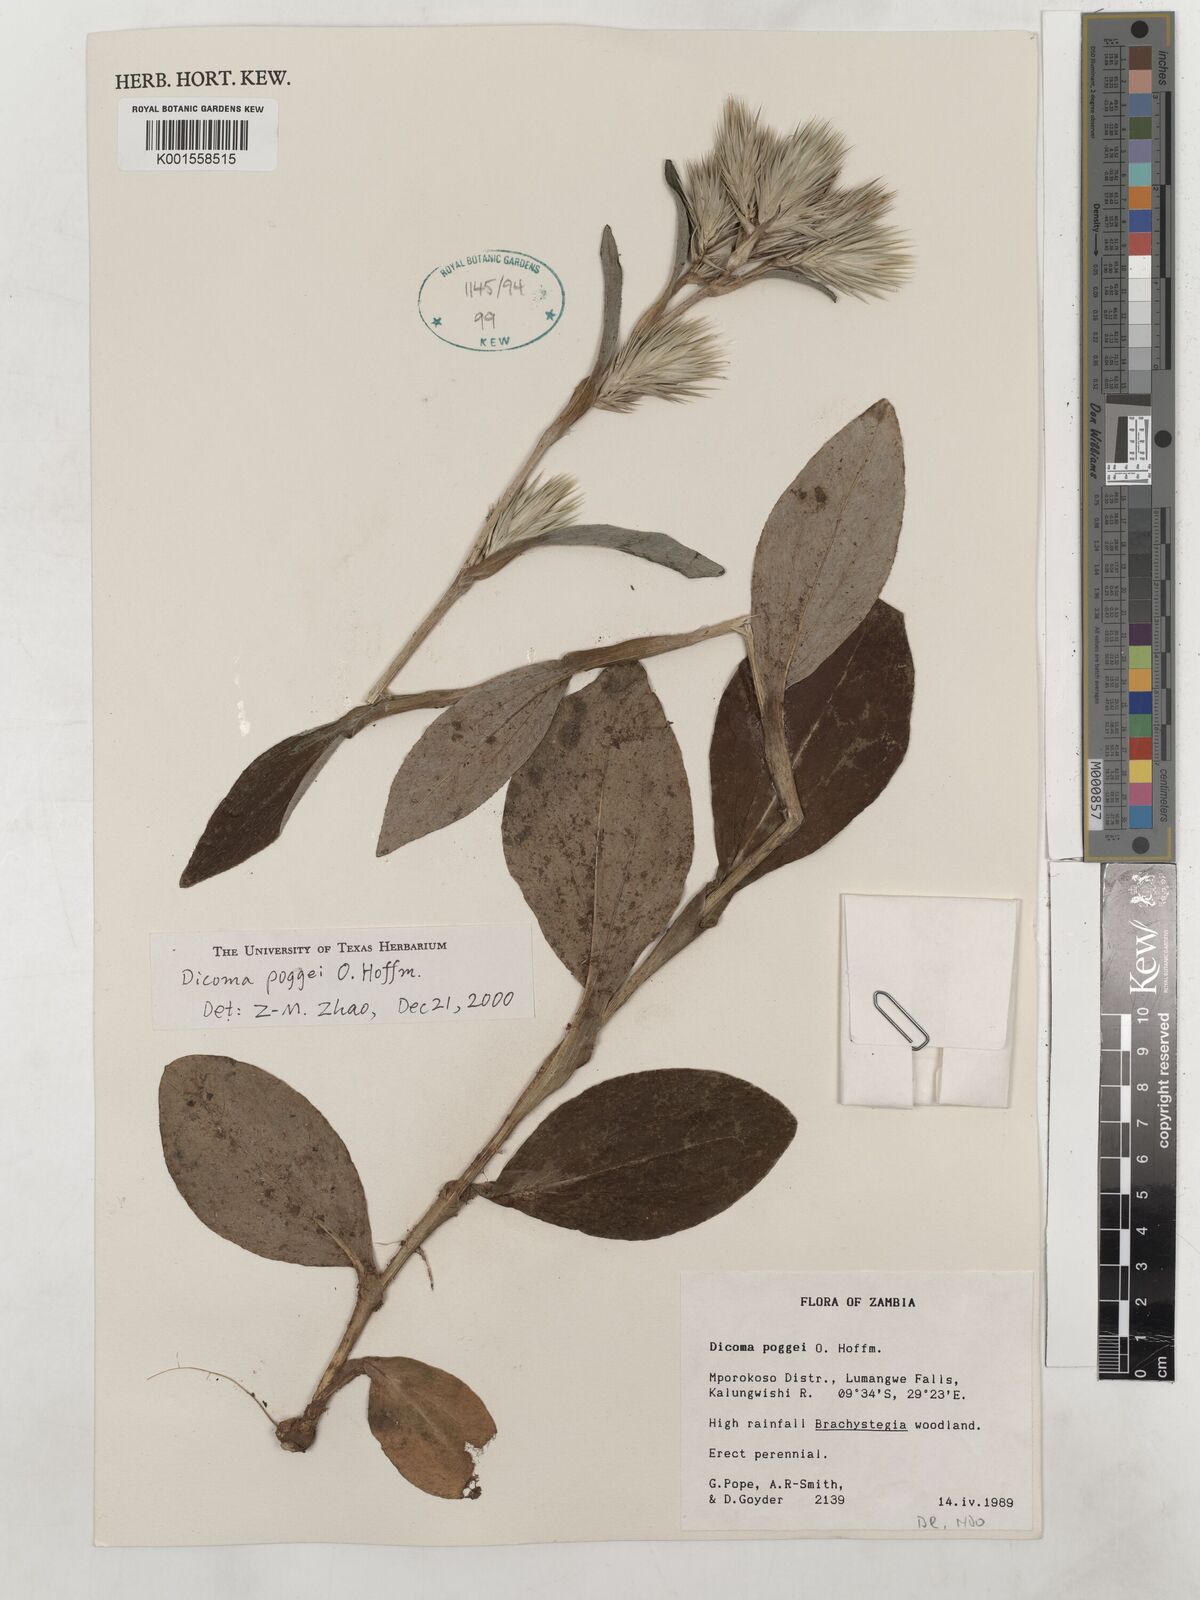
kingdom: Plantae
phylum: Tracheophyta
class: Magnoliopsida
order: Asterales
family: Asteraceae
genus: Macledium
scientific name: Macledium poggei
